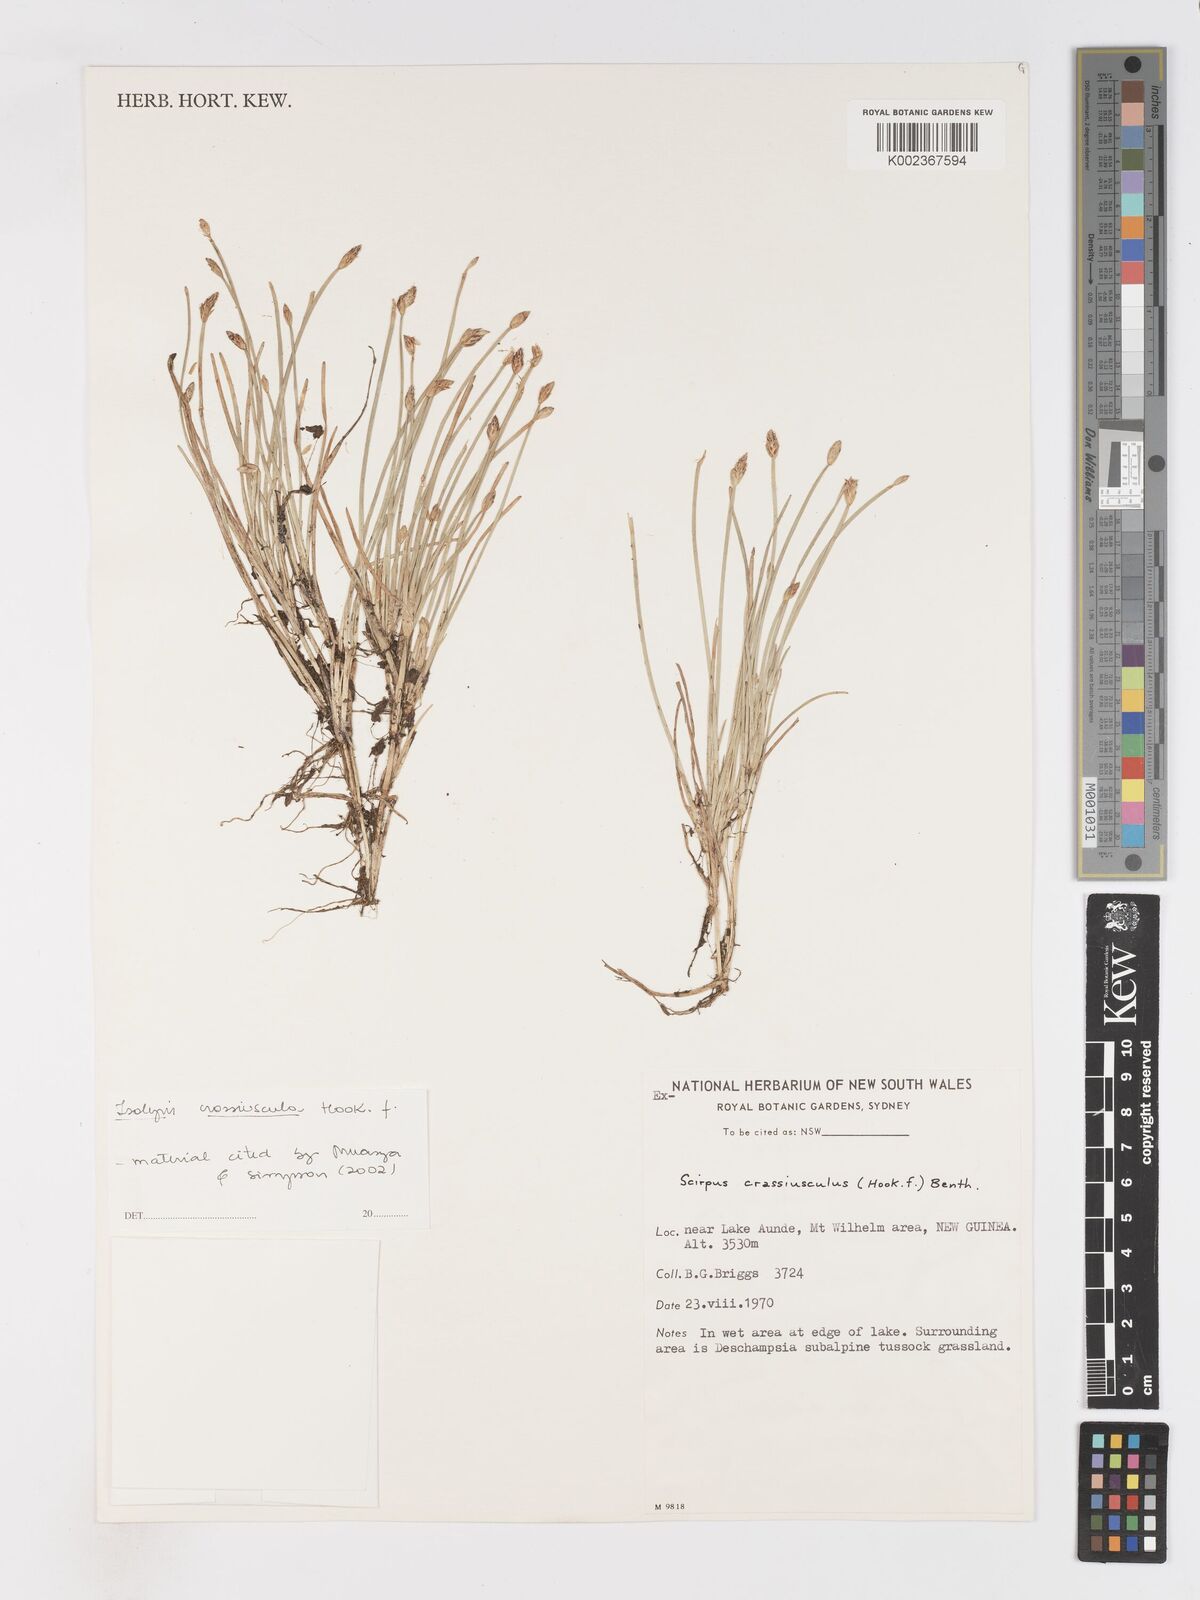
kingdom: Plantae
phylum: Tracheophyta
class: Liliopsida
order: Poales
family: Cyperaceae
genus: Isolepis
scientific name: Isolepis crassiuscula
